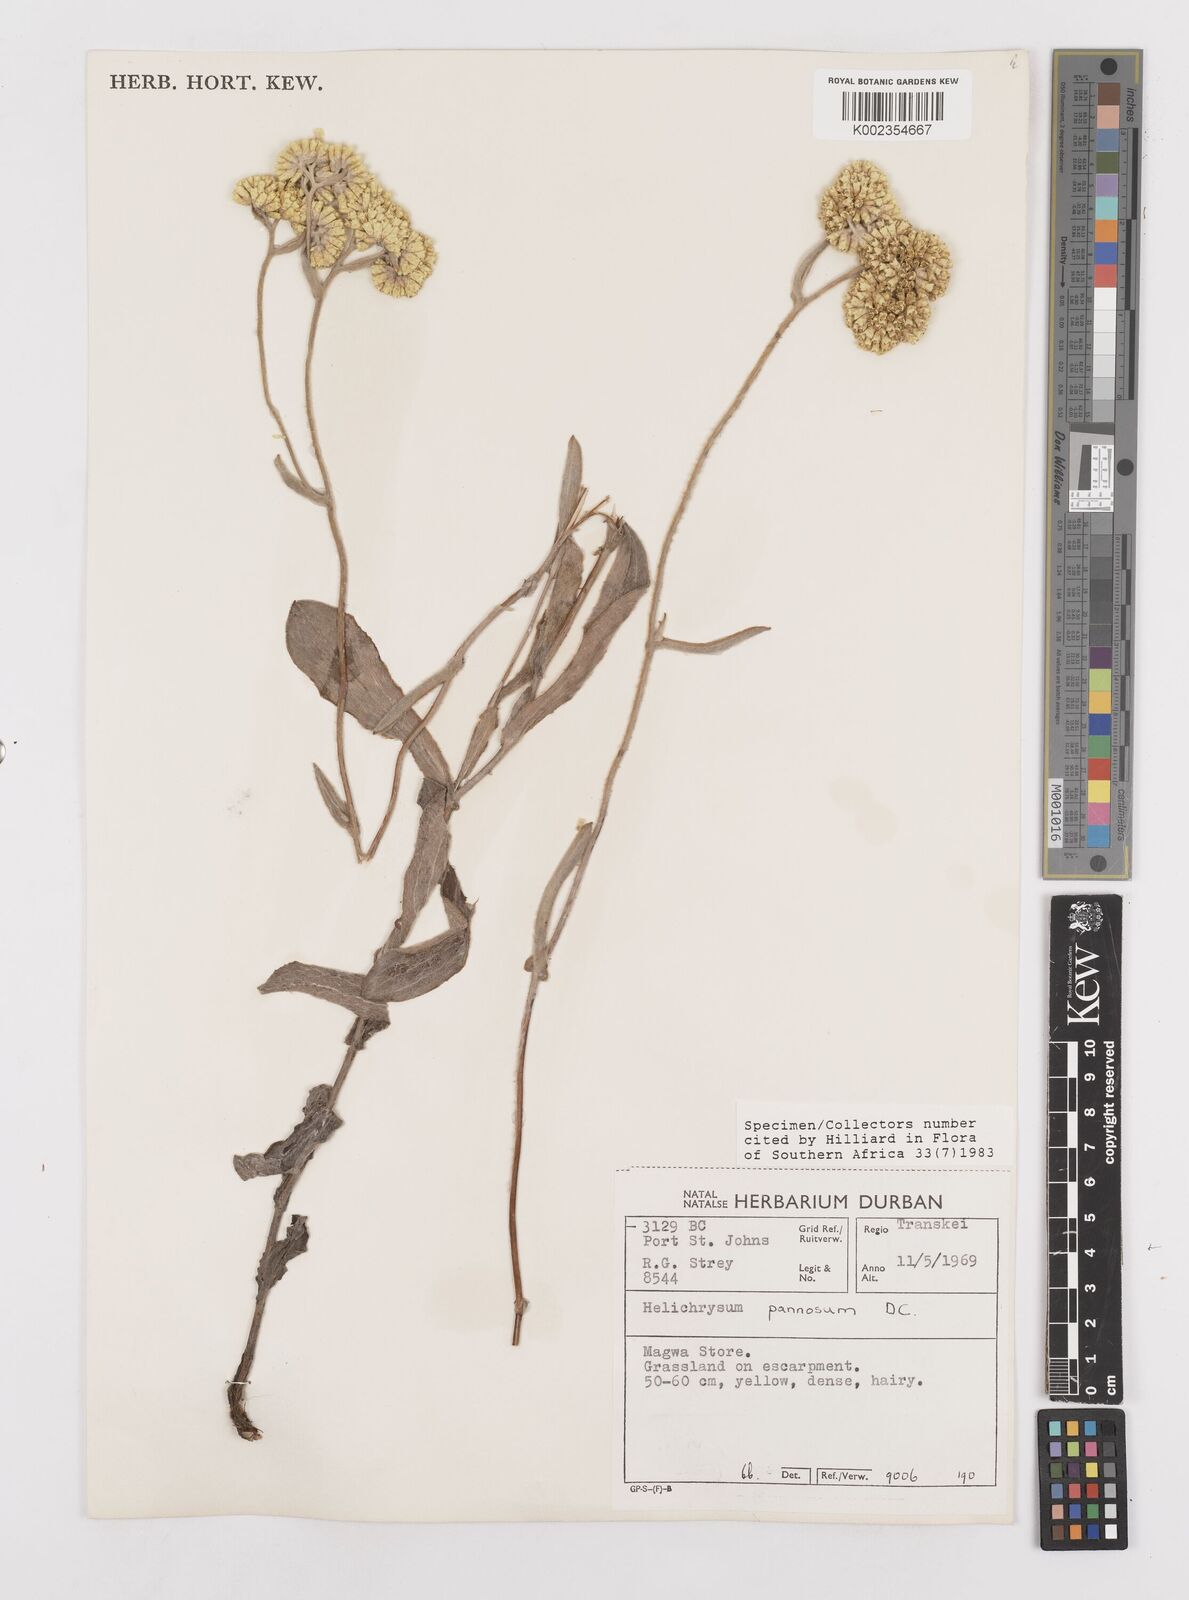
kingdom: Plantae
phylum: Tracheophyta
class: Magnoliopsida
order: Asterales
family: Asteraceae
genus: Helichrysum
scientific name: Helichrysum pannosum
